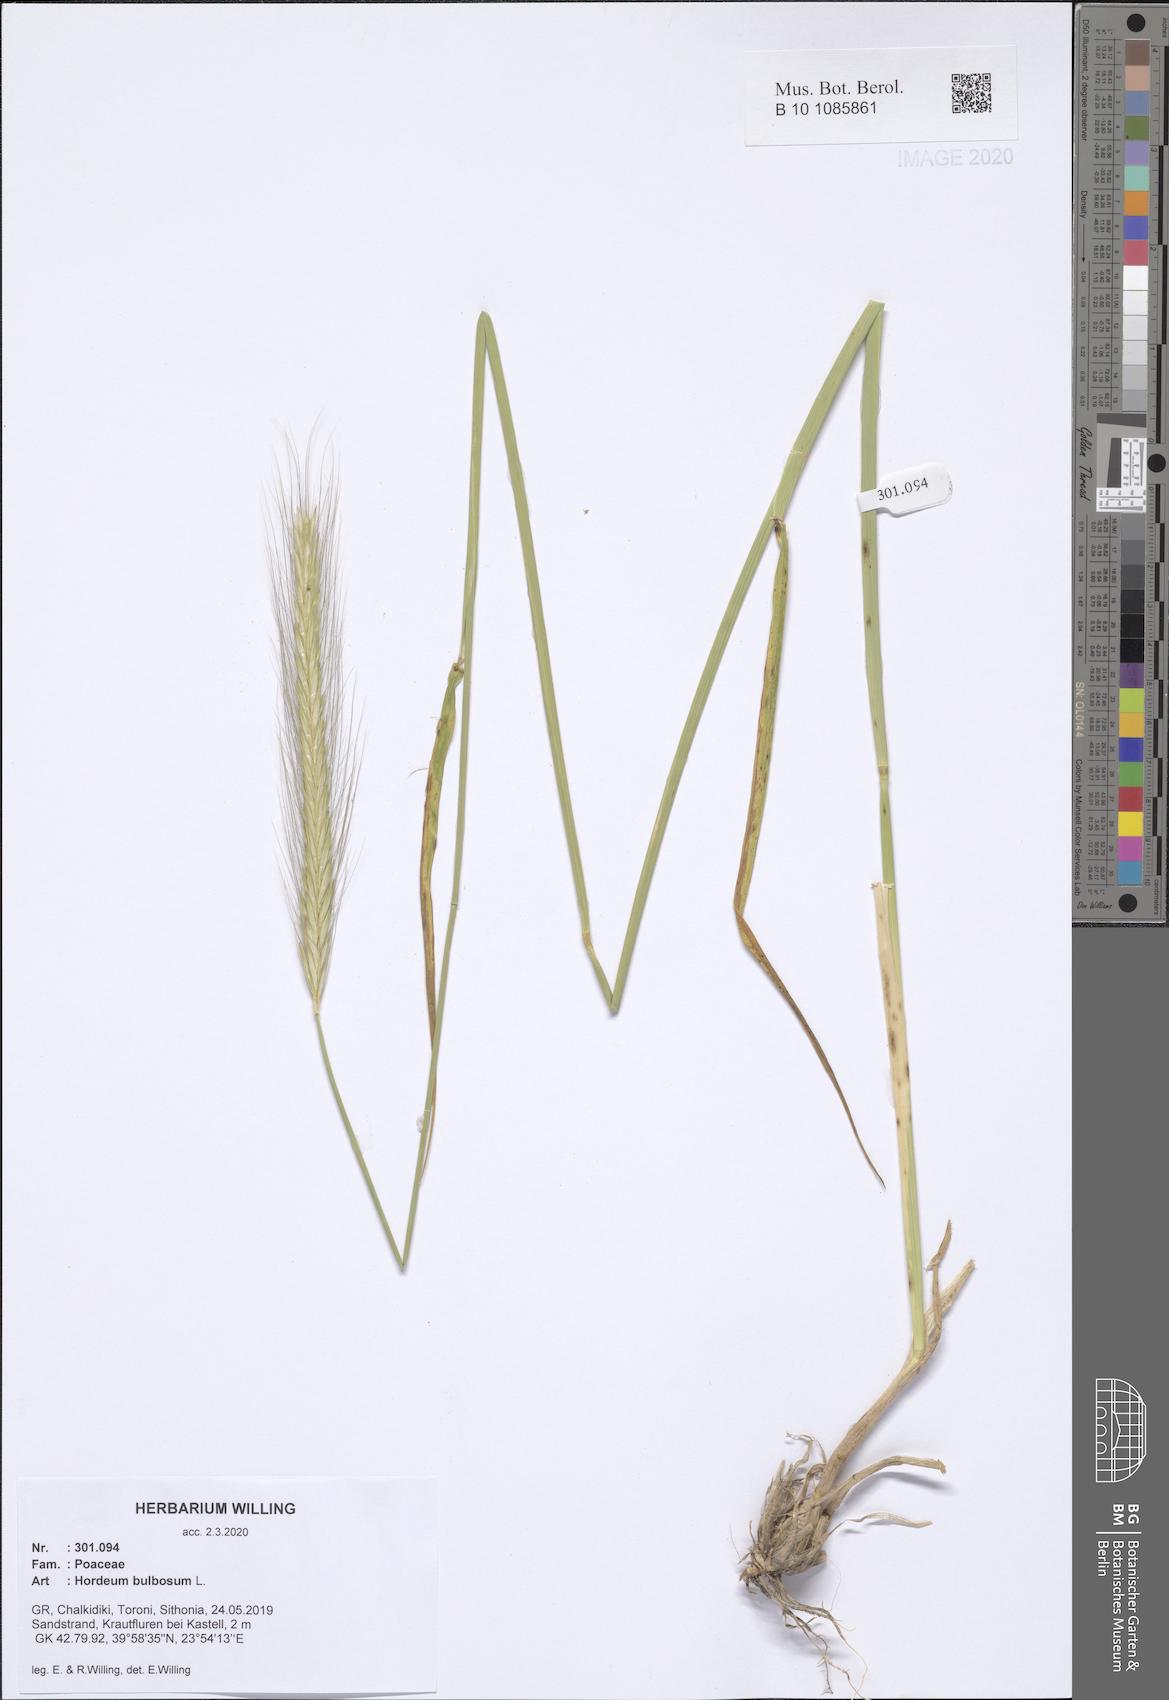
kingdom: Plantae
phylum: Tracheophyta
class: Liliopsida
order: Poales
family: Poaceae
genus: Hordeum
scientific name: Hordeum bulbosum
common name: Bulbous barley
